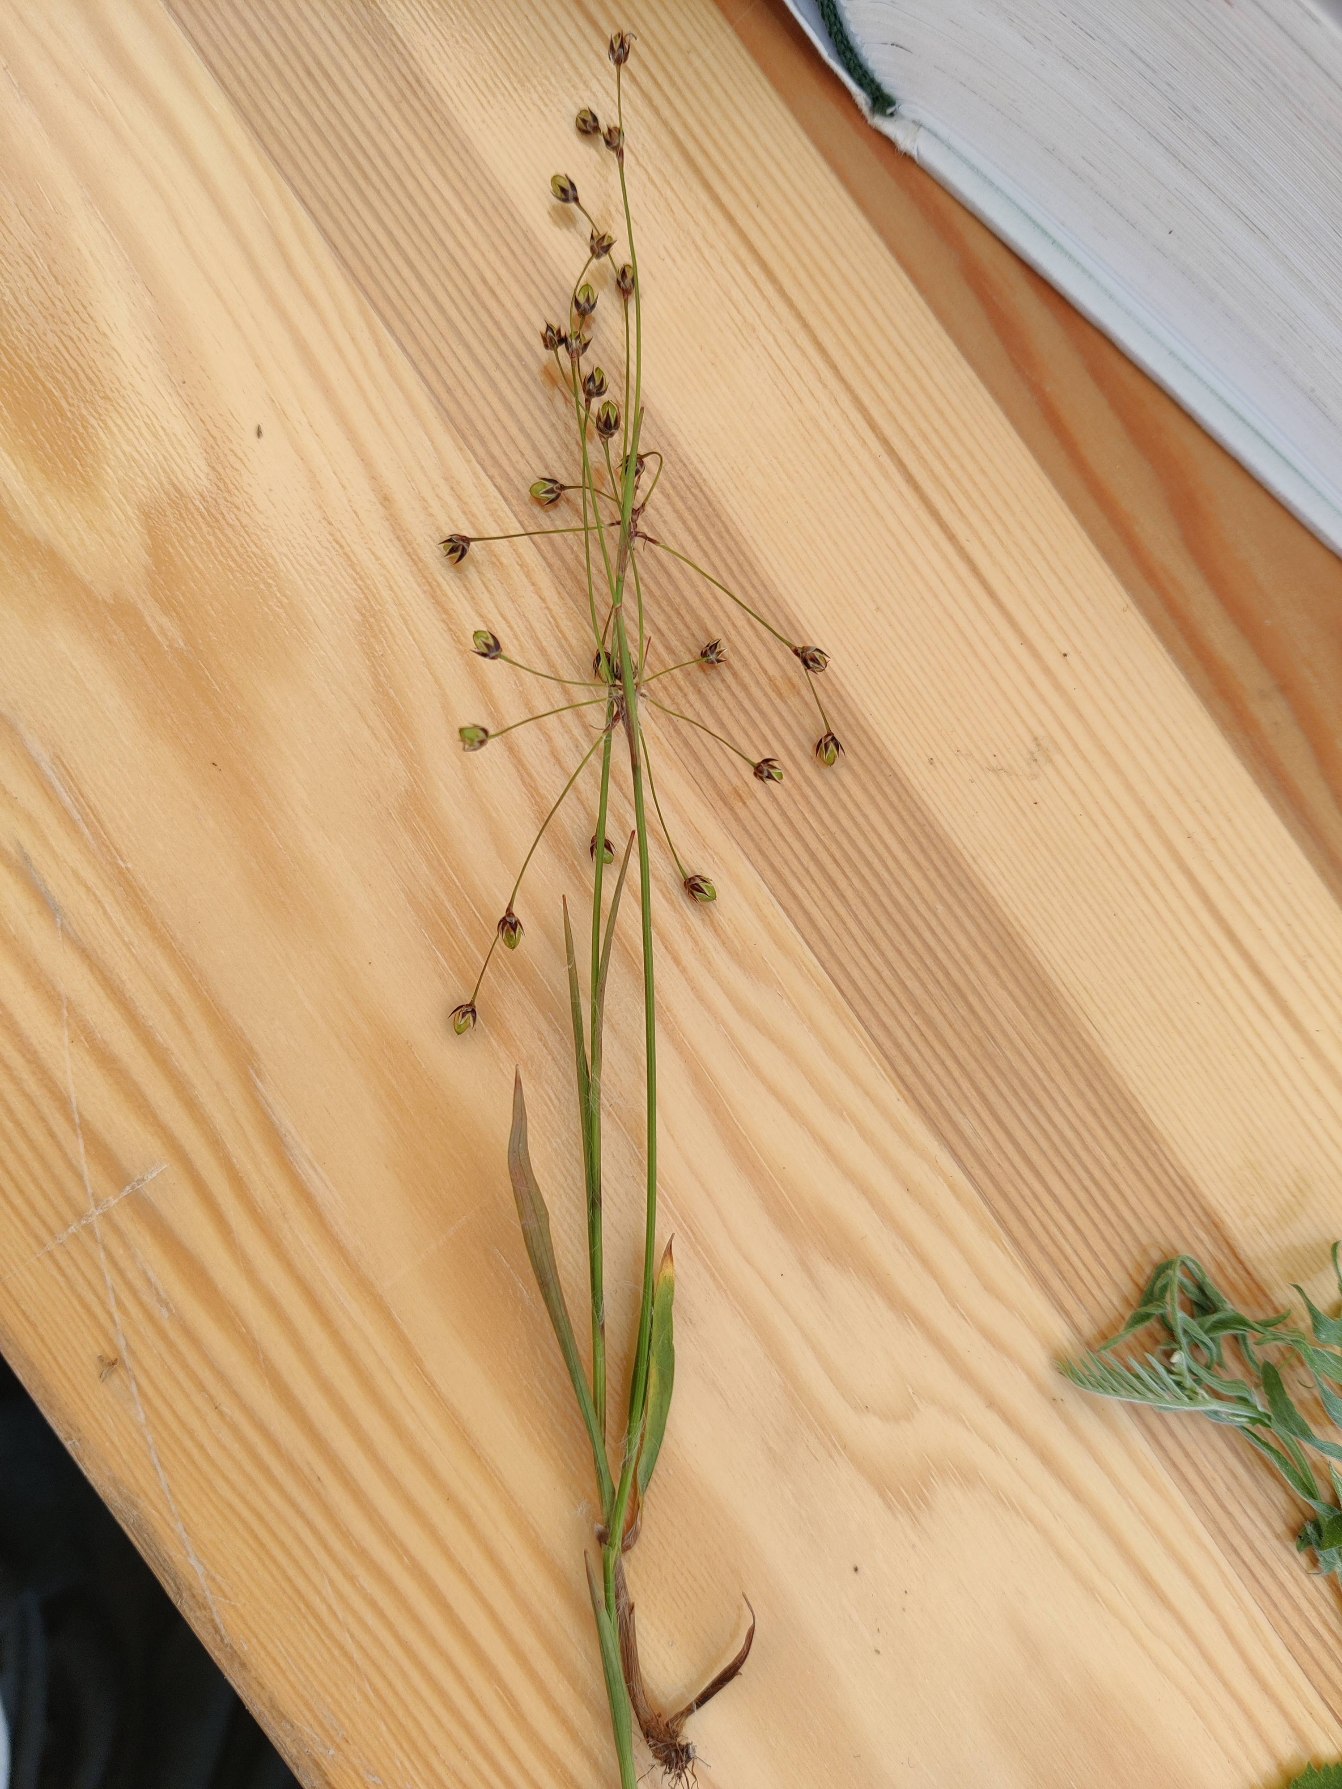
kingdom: Plantae
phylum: Tracheophyta
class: Liliopsida
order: Poales
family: Juncaceae
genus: Luzula
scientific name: Luzula pilosa
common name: Håret frytle
